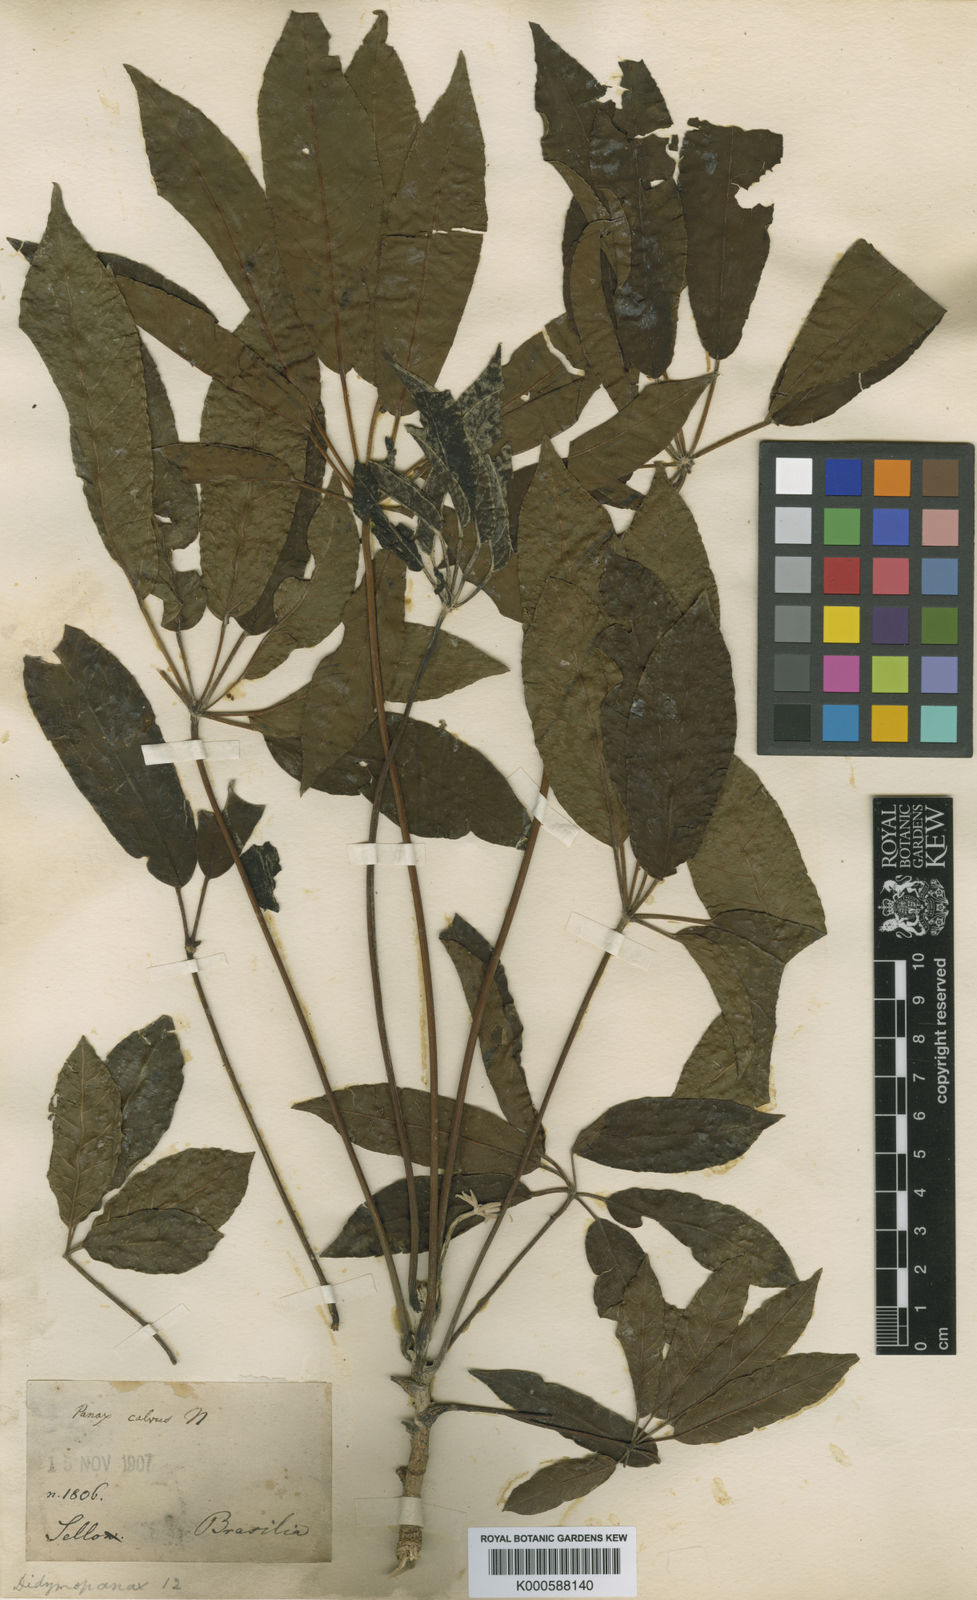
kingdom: Plantae
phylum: Tracheophyta
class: Magnoliopsida
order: Apiales
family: Araliaceae
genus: Didymopanax
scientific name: Didymopanax calvus
